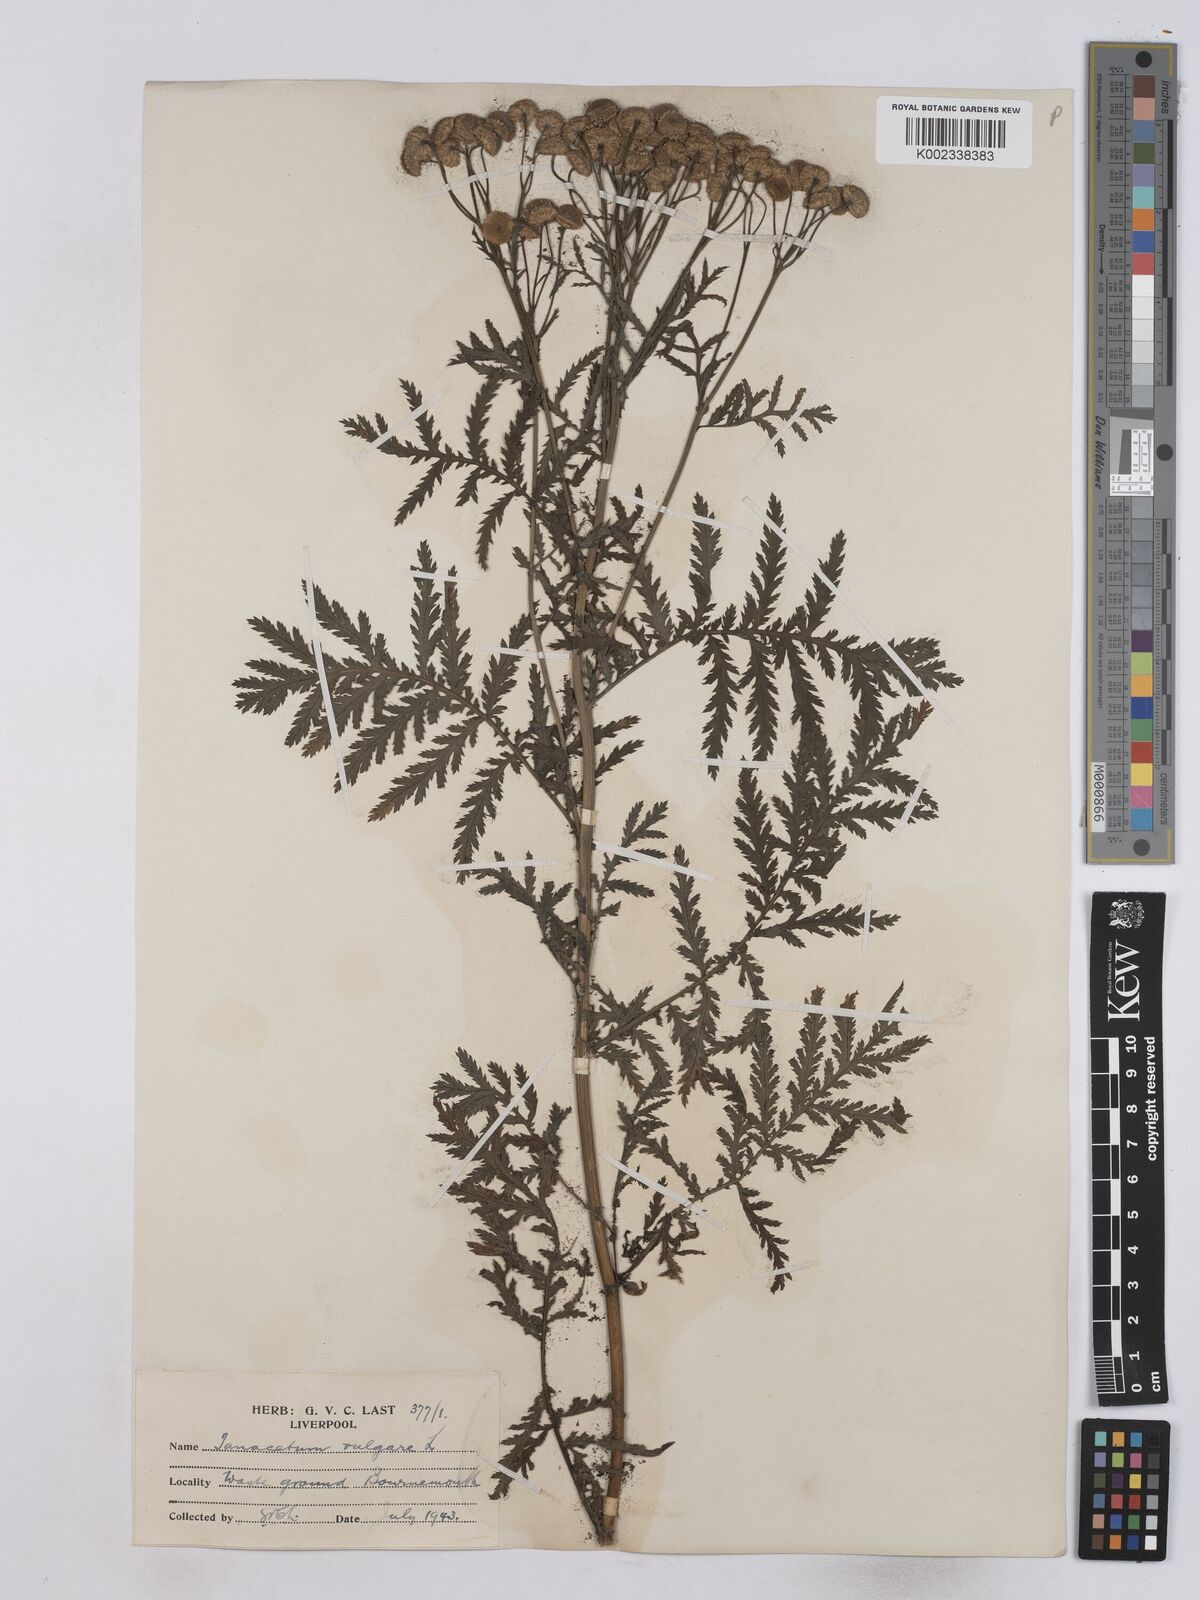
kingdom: Plantae
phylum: Tracheophyta
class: Magnoliopsida
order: Asterales
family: Asteraceae
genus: Tanacetum
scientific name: Tanacetum vulgare
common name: Common tansy
